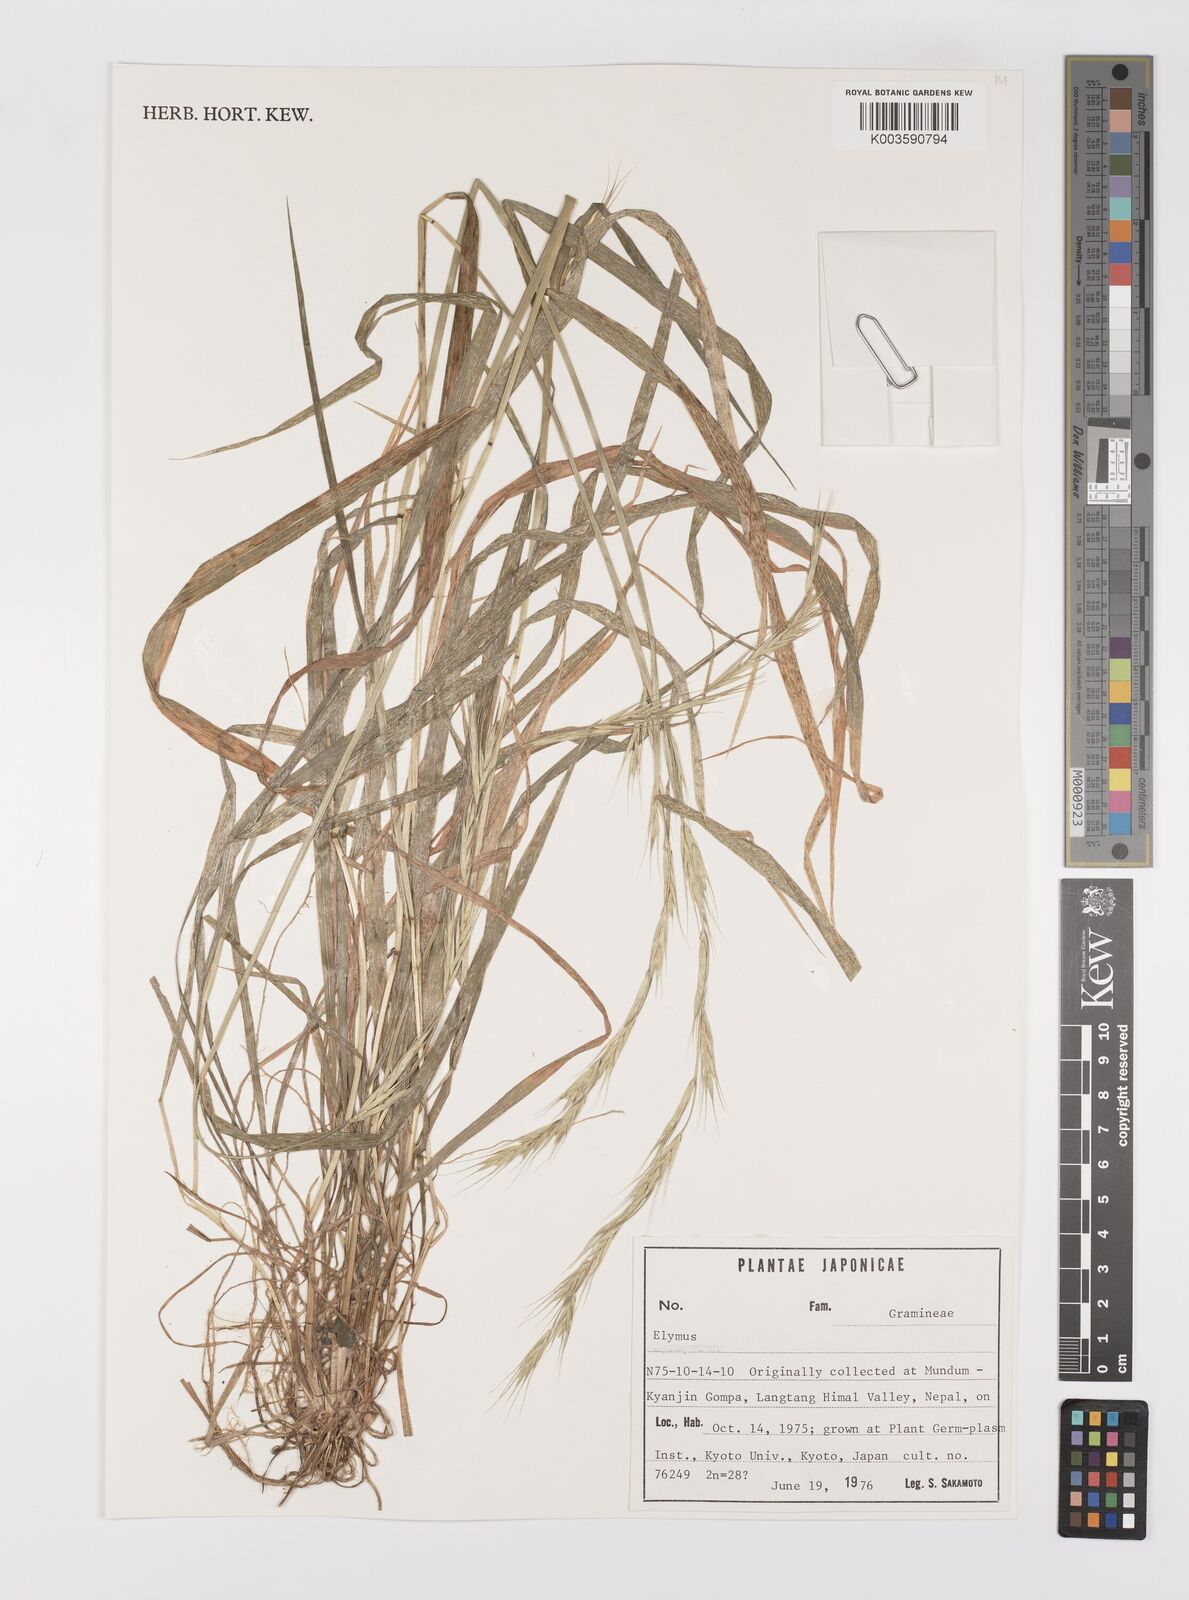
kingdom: Plantae
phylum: Tracheophyta
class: Liliopsida
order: Poales
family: Poaceae
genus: Elymus
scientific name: Elymus
